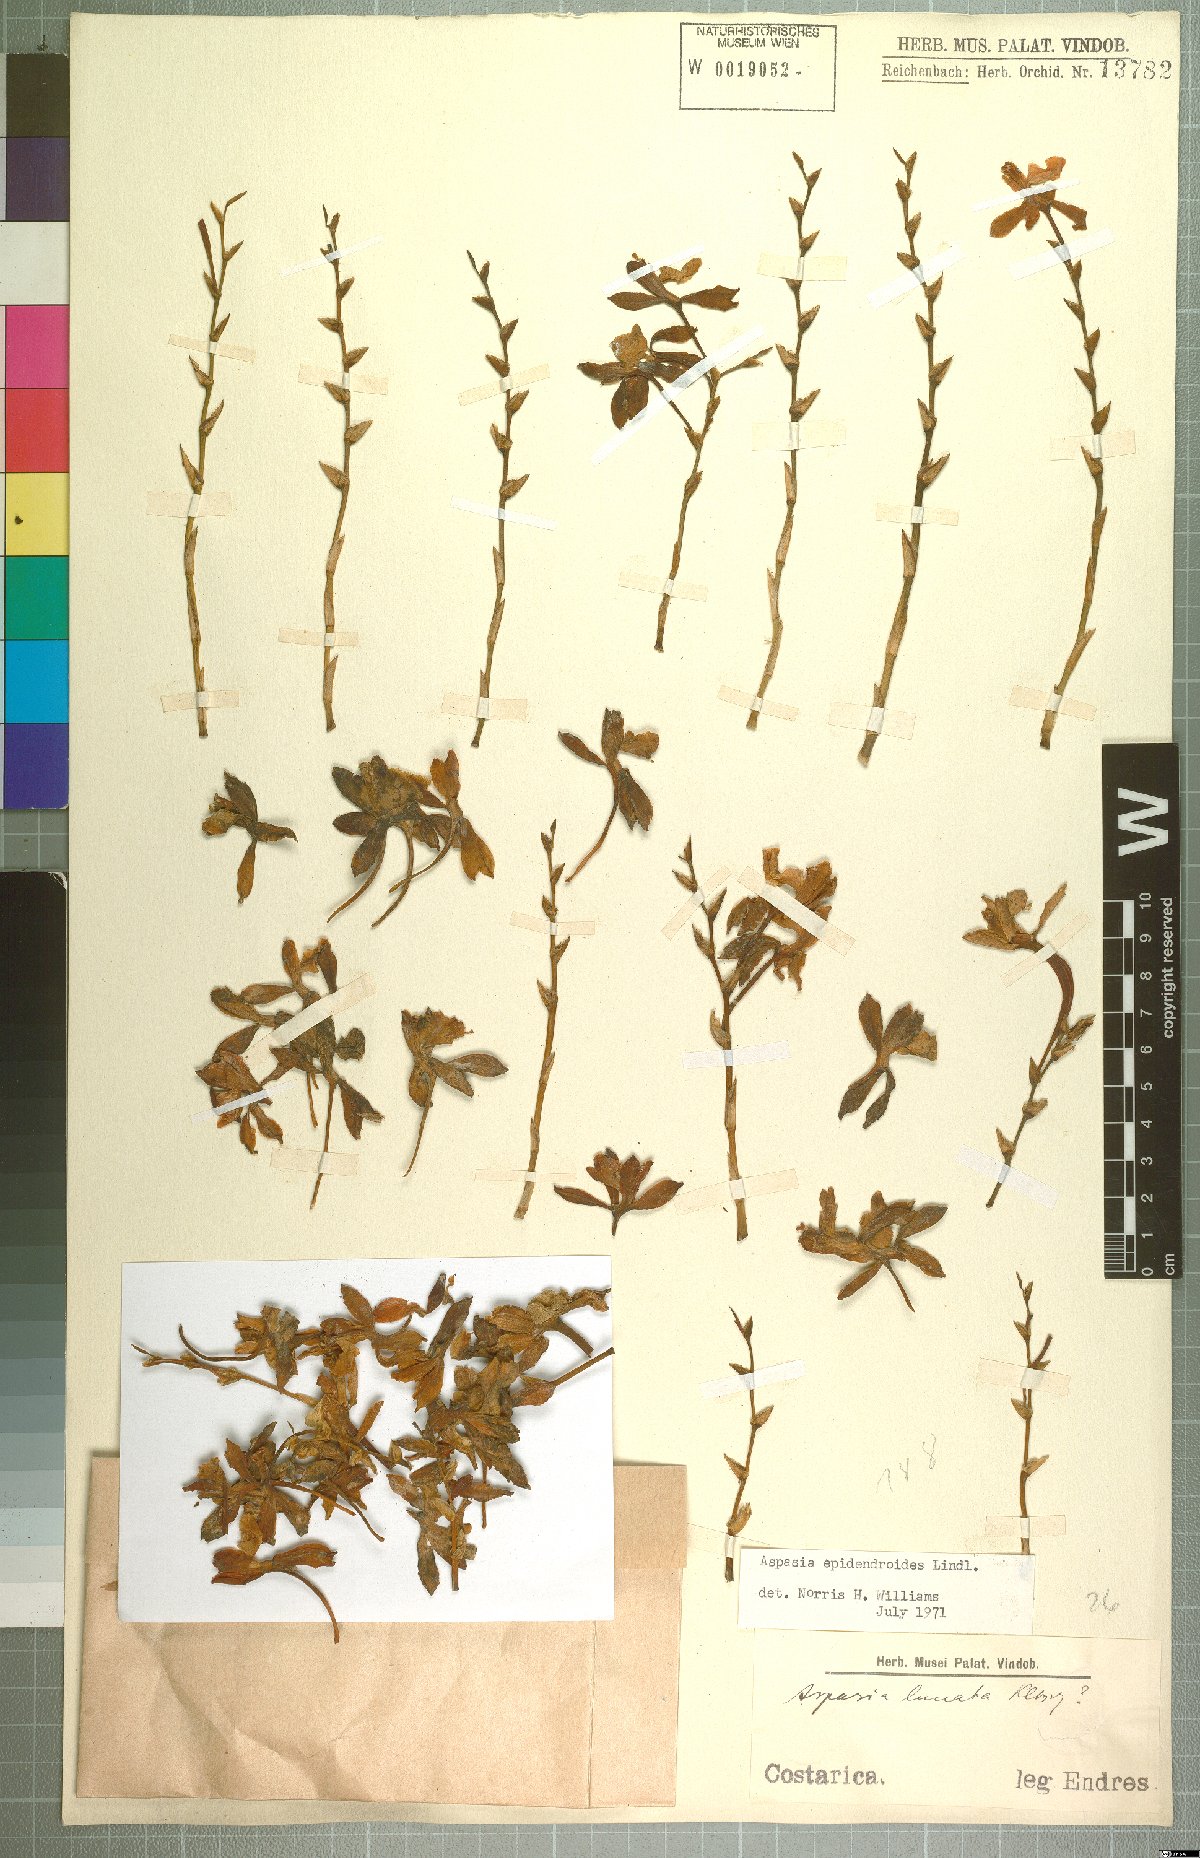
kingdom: Plantae
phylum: Tracheophyta
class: Liliopsida
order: Asparagales
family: Orchidaceae
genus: Aspasia
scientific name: Aspasia epidendroides
